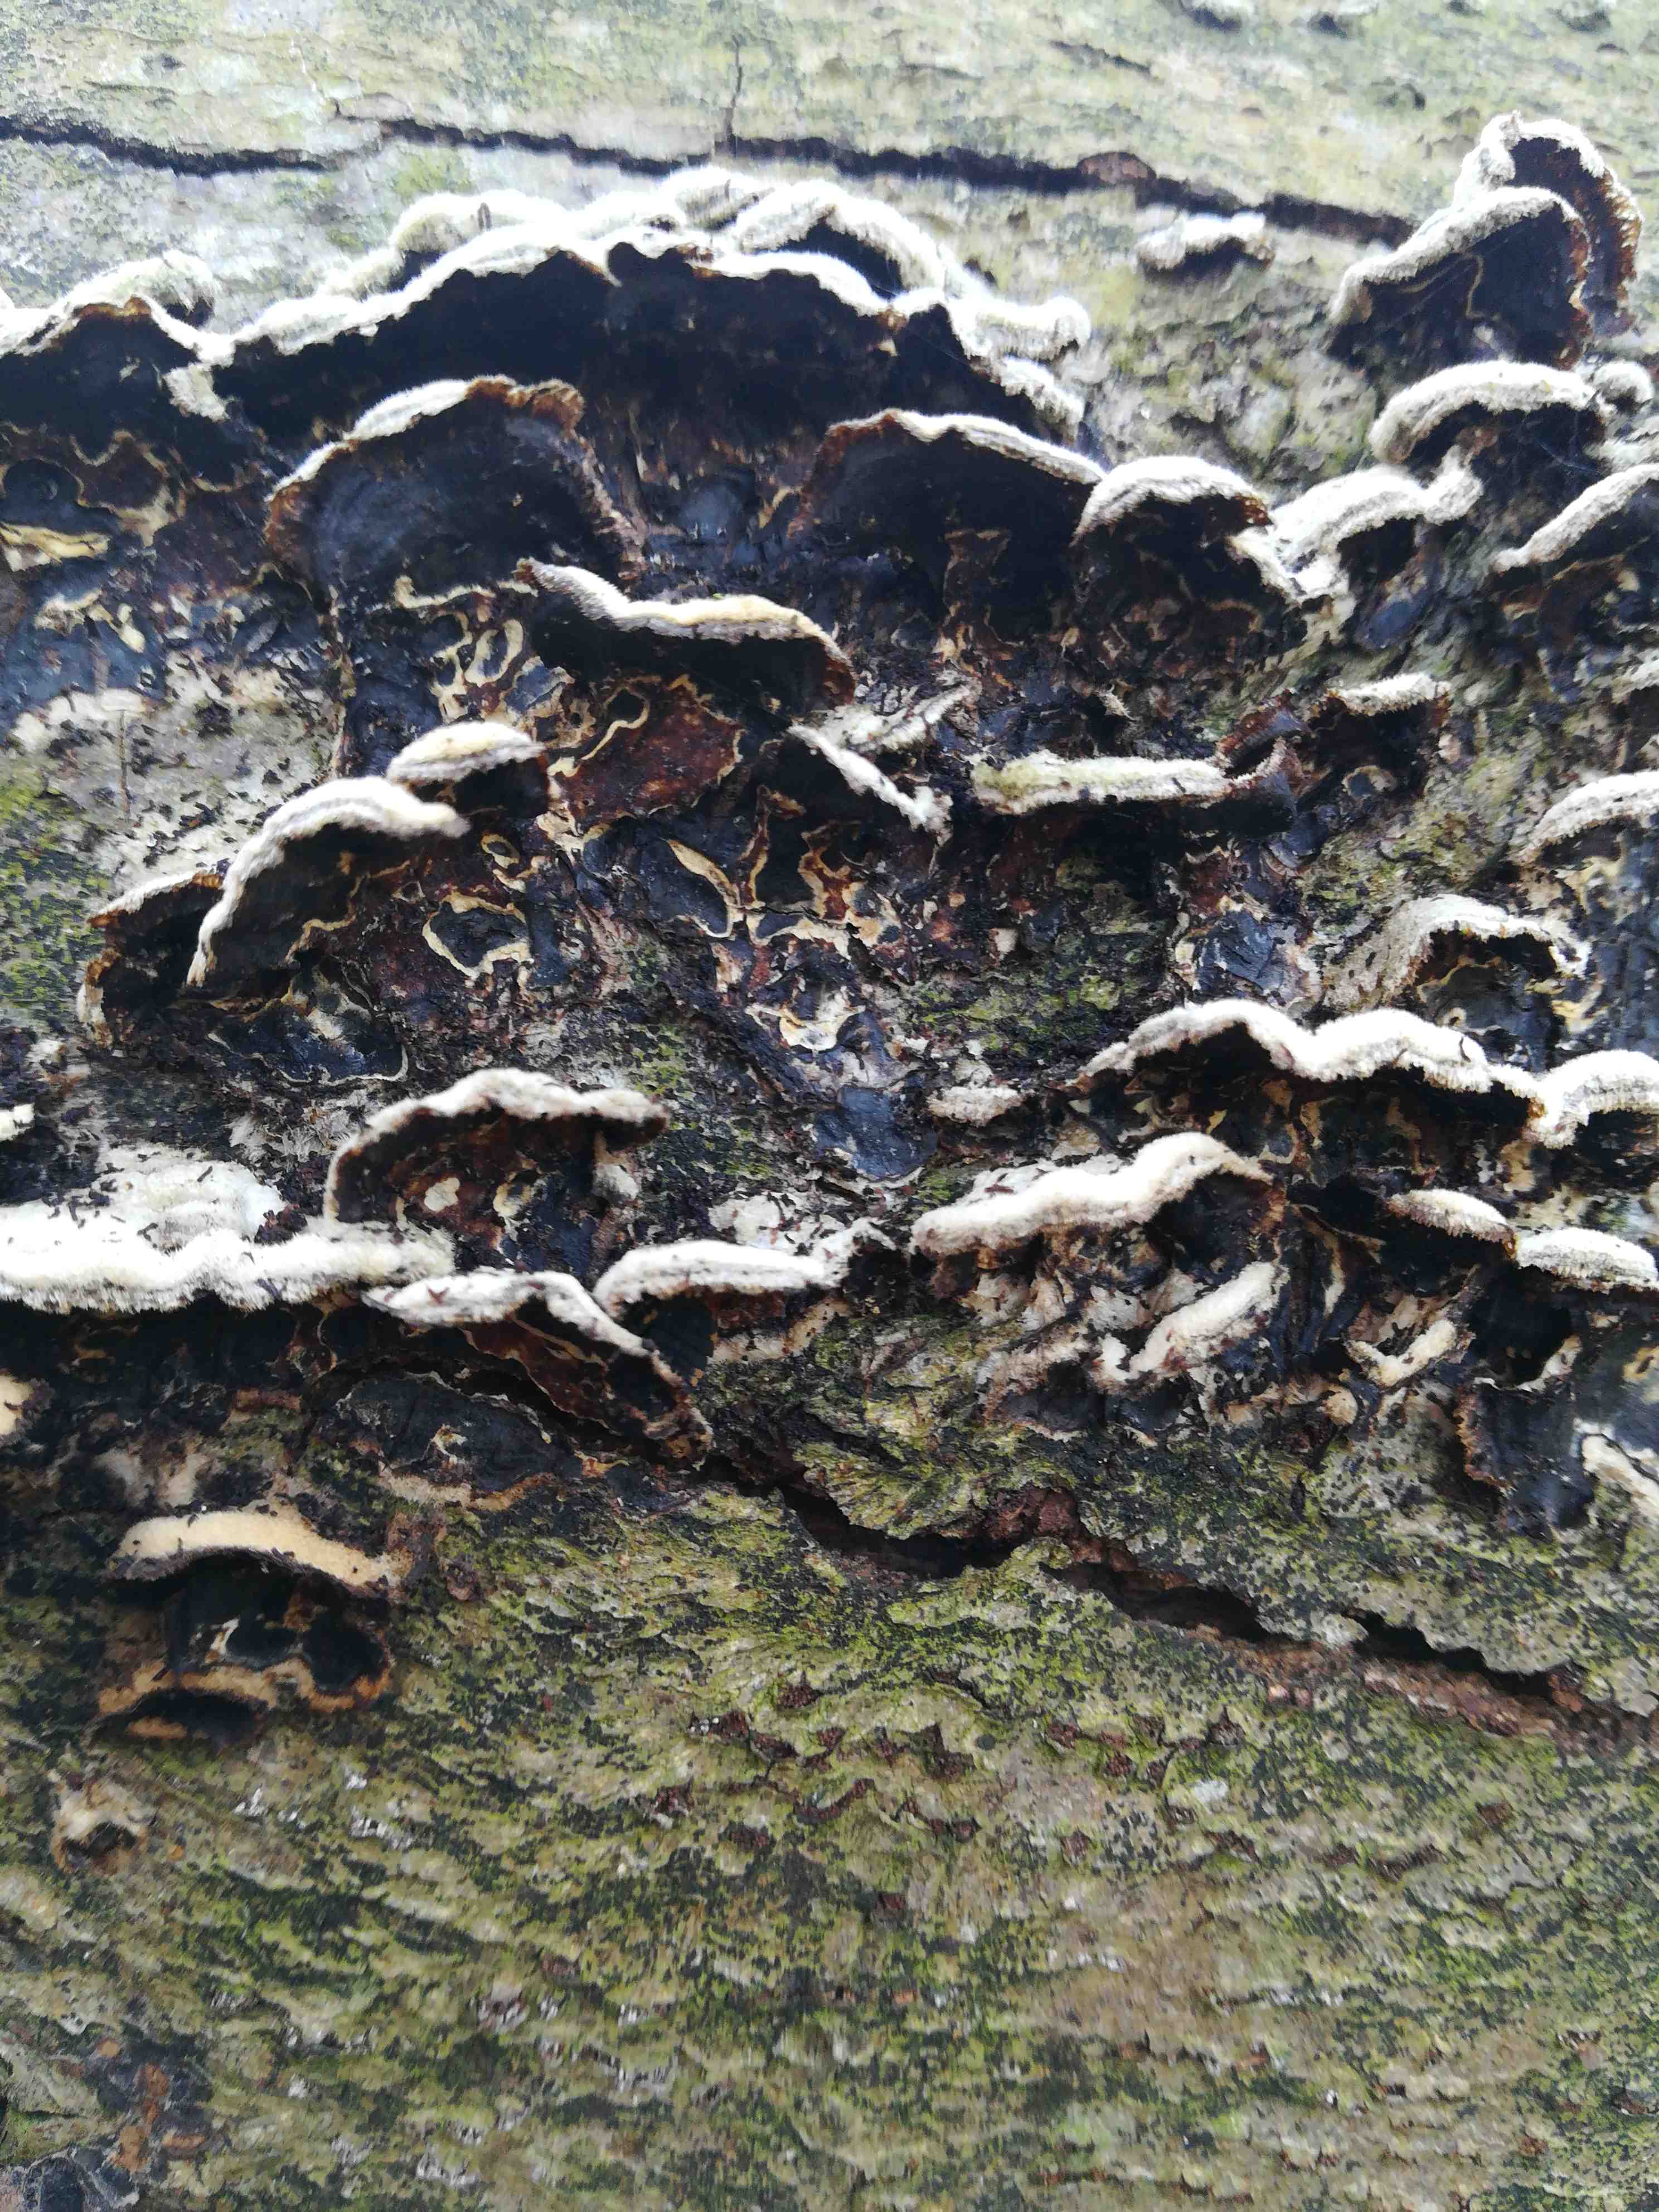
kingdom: Fungi
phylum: Basidiomycota
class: Agaricomycetes
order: Agaricales
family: Cyphellaceae
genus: Chondrostereum
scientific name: Chondrostereum purpureum
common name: purpurlædersvamp
